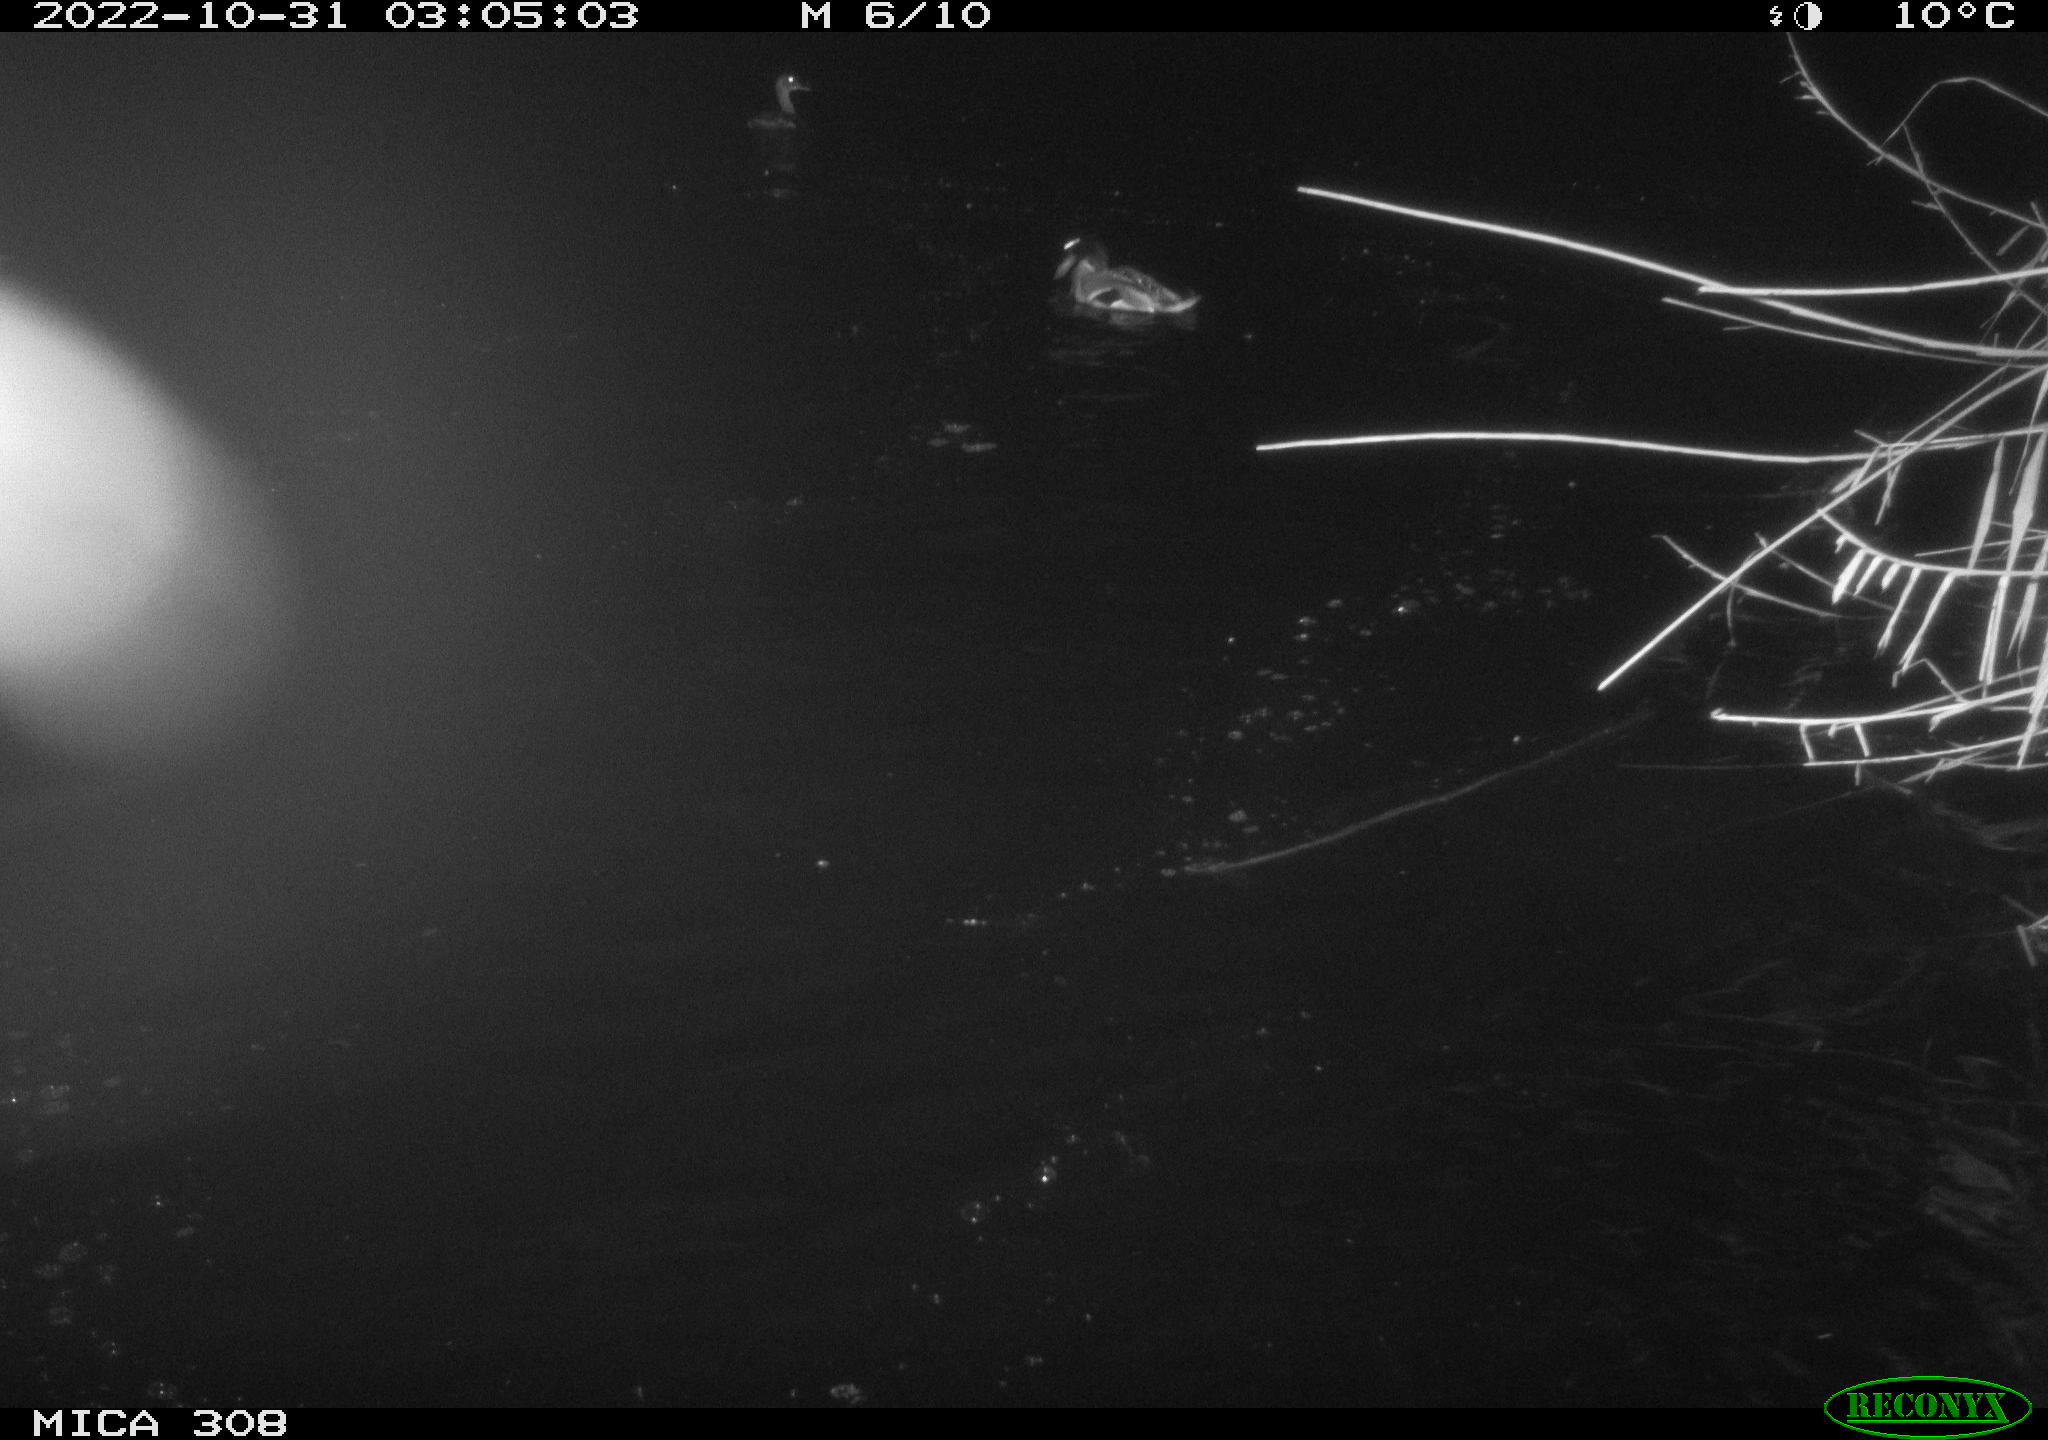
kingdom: Animalia
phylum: Chordata
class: Mammalia
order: Rodentia
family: Cricetidae
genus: Ondatra
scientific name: Ondatra zibethicus
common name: Muskrat
